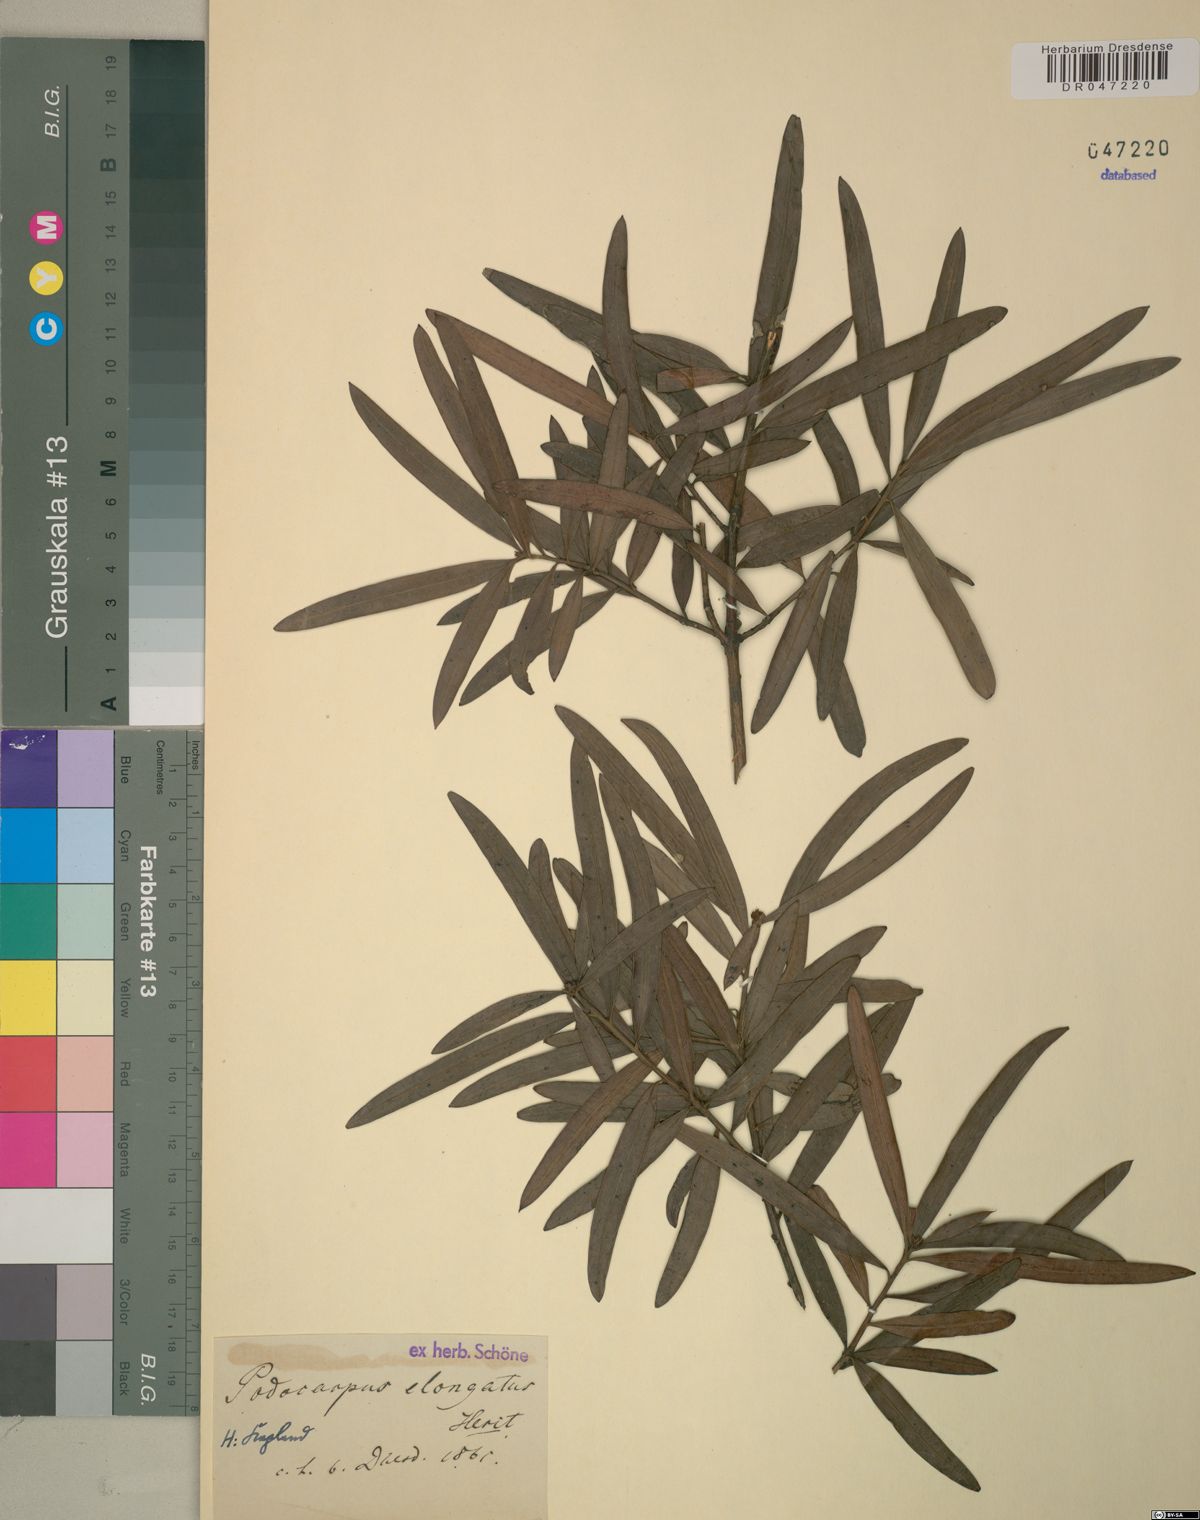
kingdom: Plantae
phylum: Tracheophyta
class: Pinopsida
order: Pinales
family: Podocarpaceae
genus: Podocarpus
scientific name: Podocarpus elongatus
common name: Breede river yellowwood
